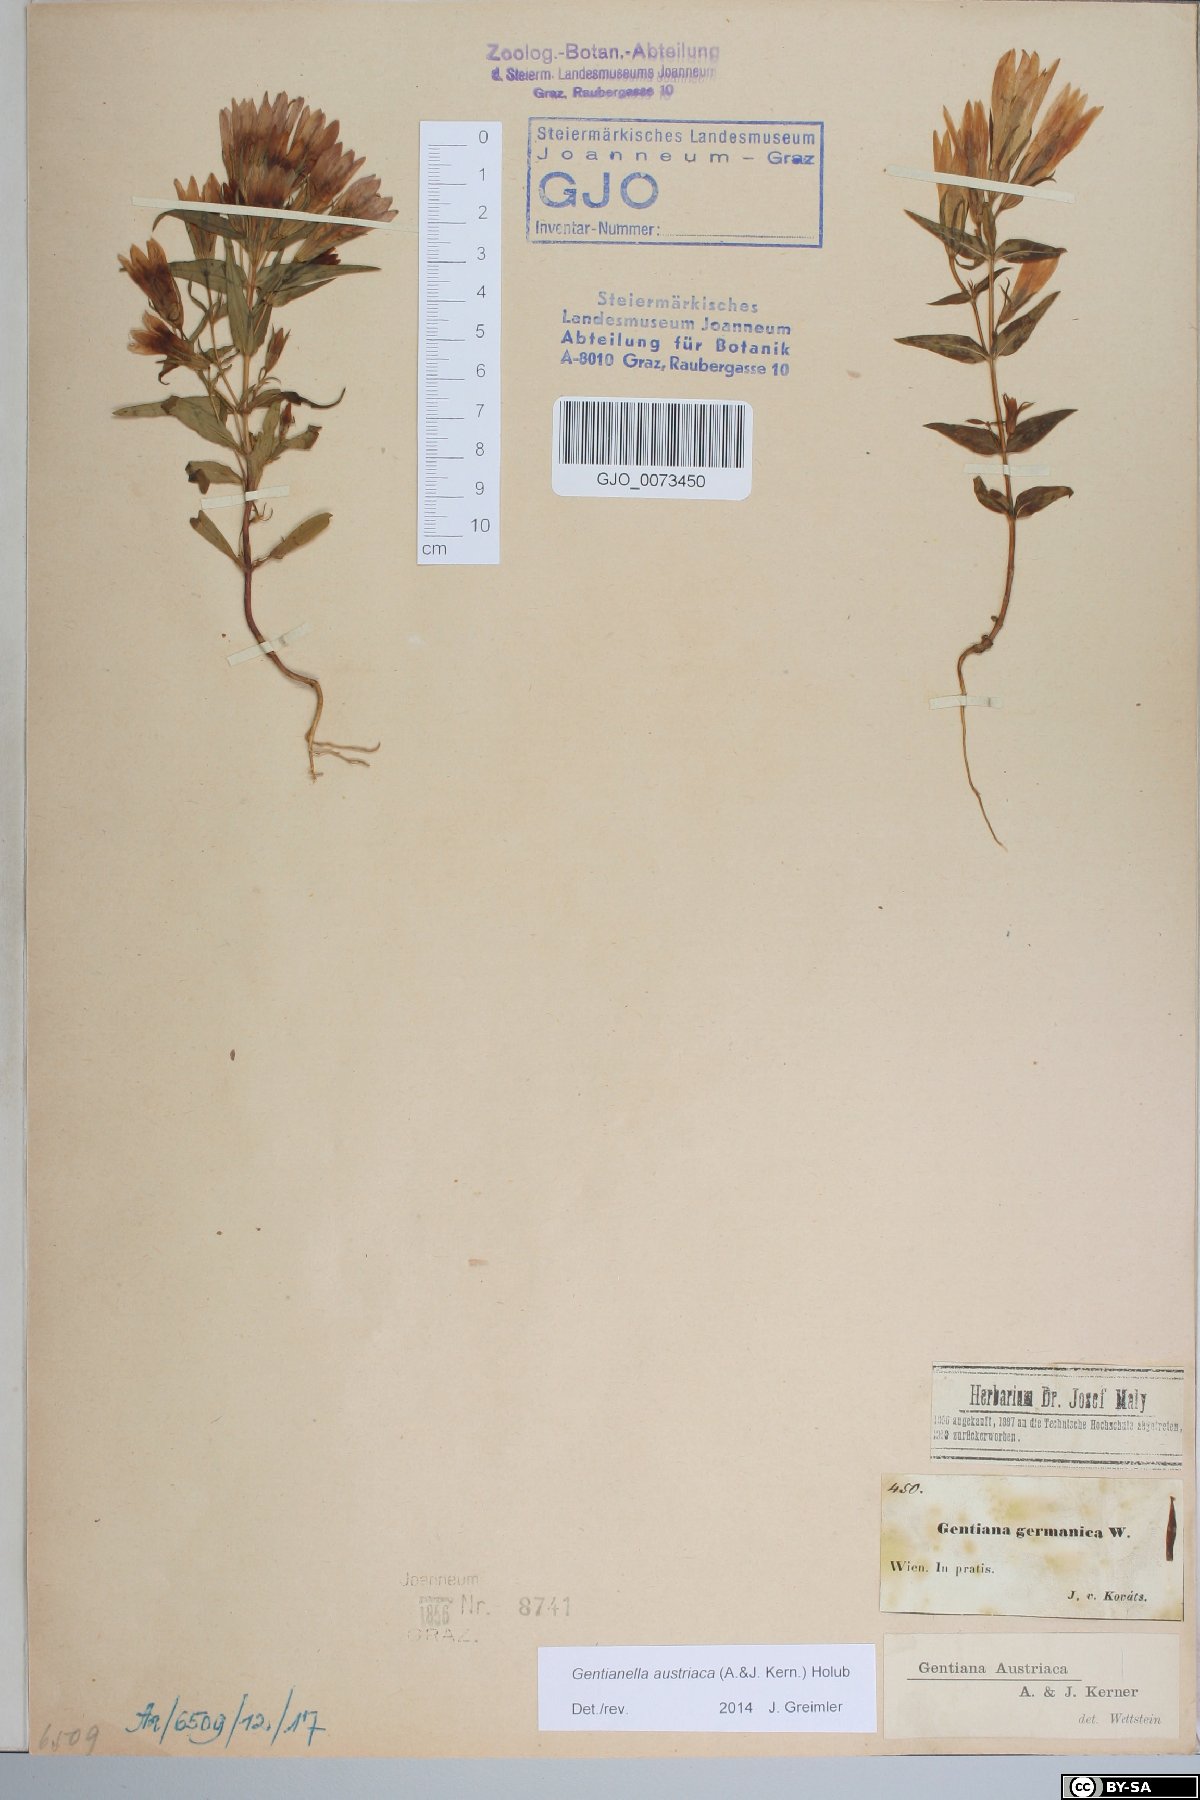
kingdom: Plantae
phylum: Tracheophyta
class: Magnoliopsida
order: Gentianales
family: Gentianaceae
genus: Gentianella
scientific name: Gentianella austriaca
